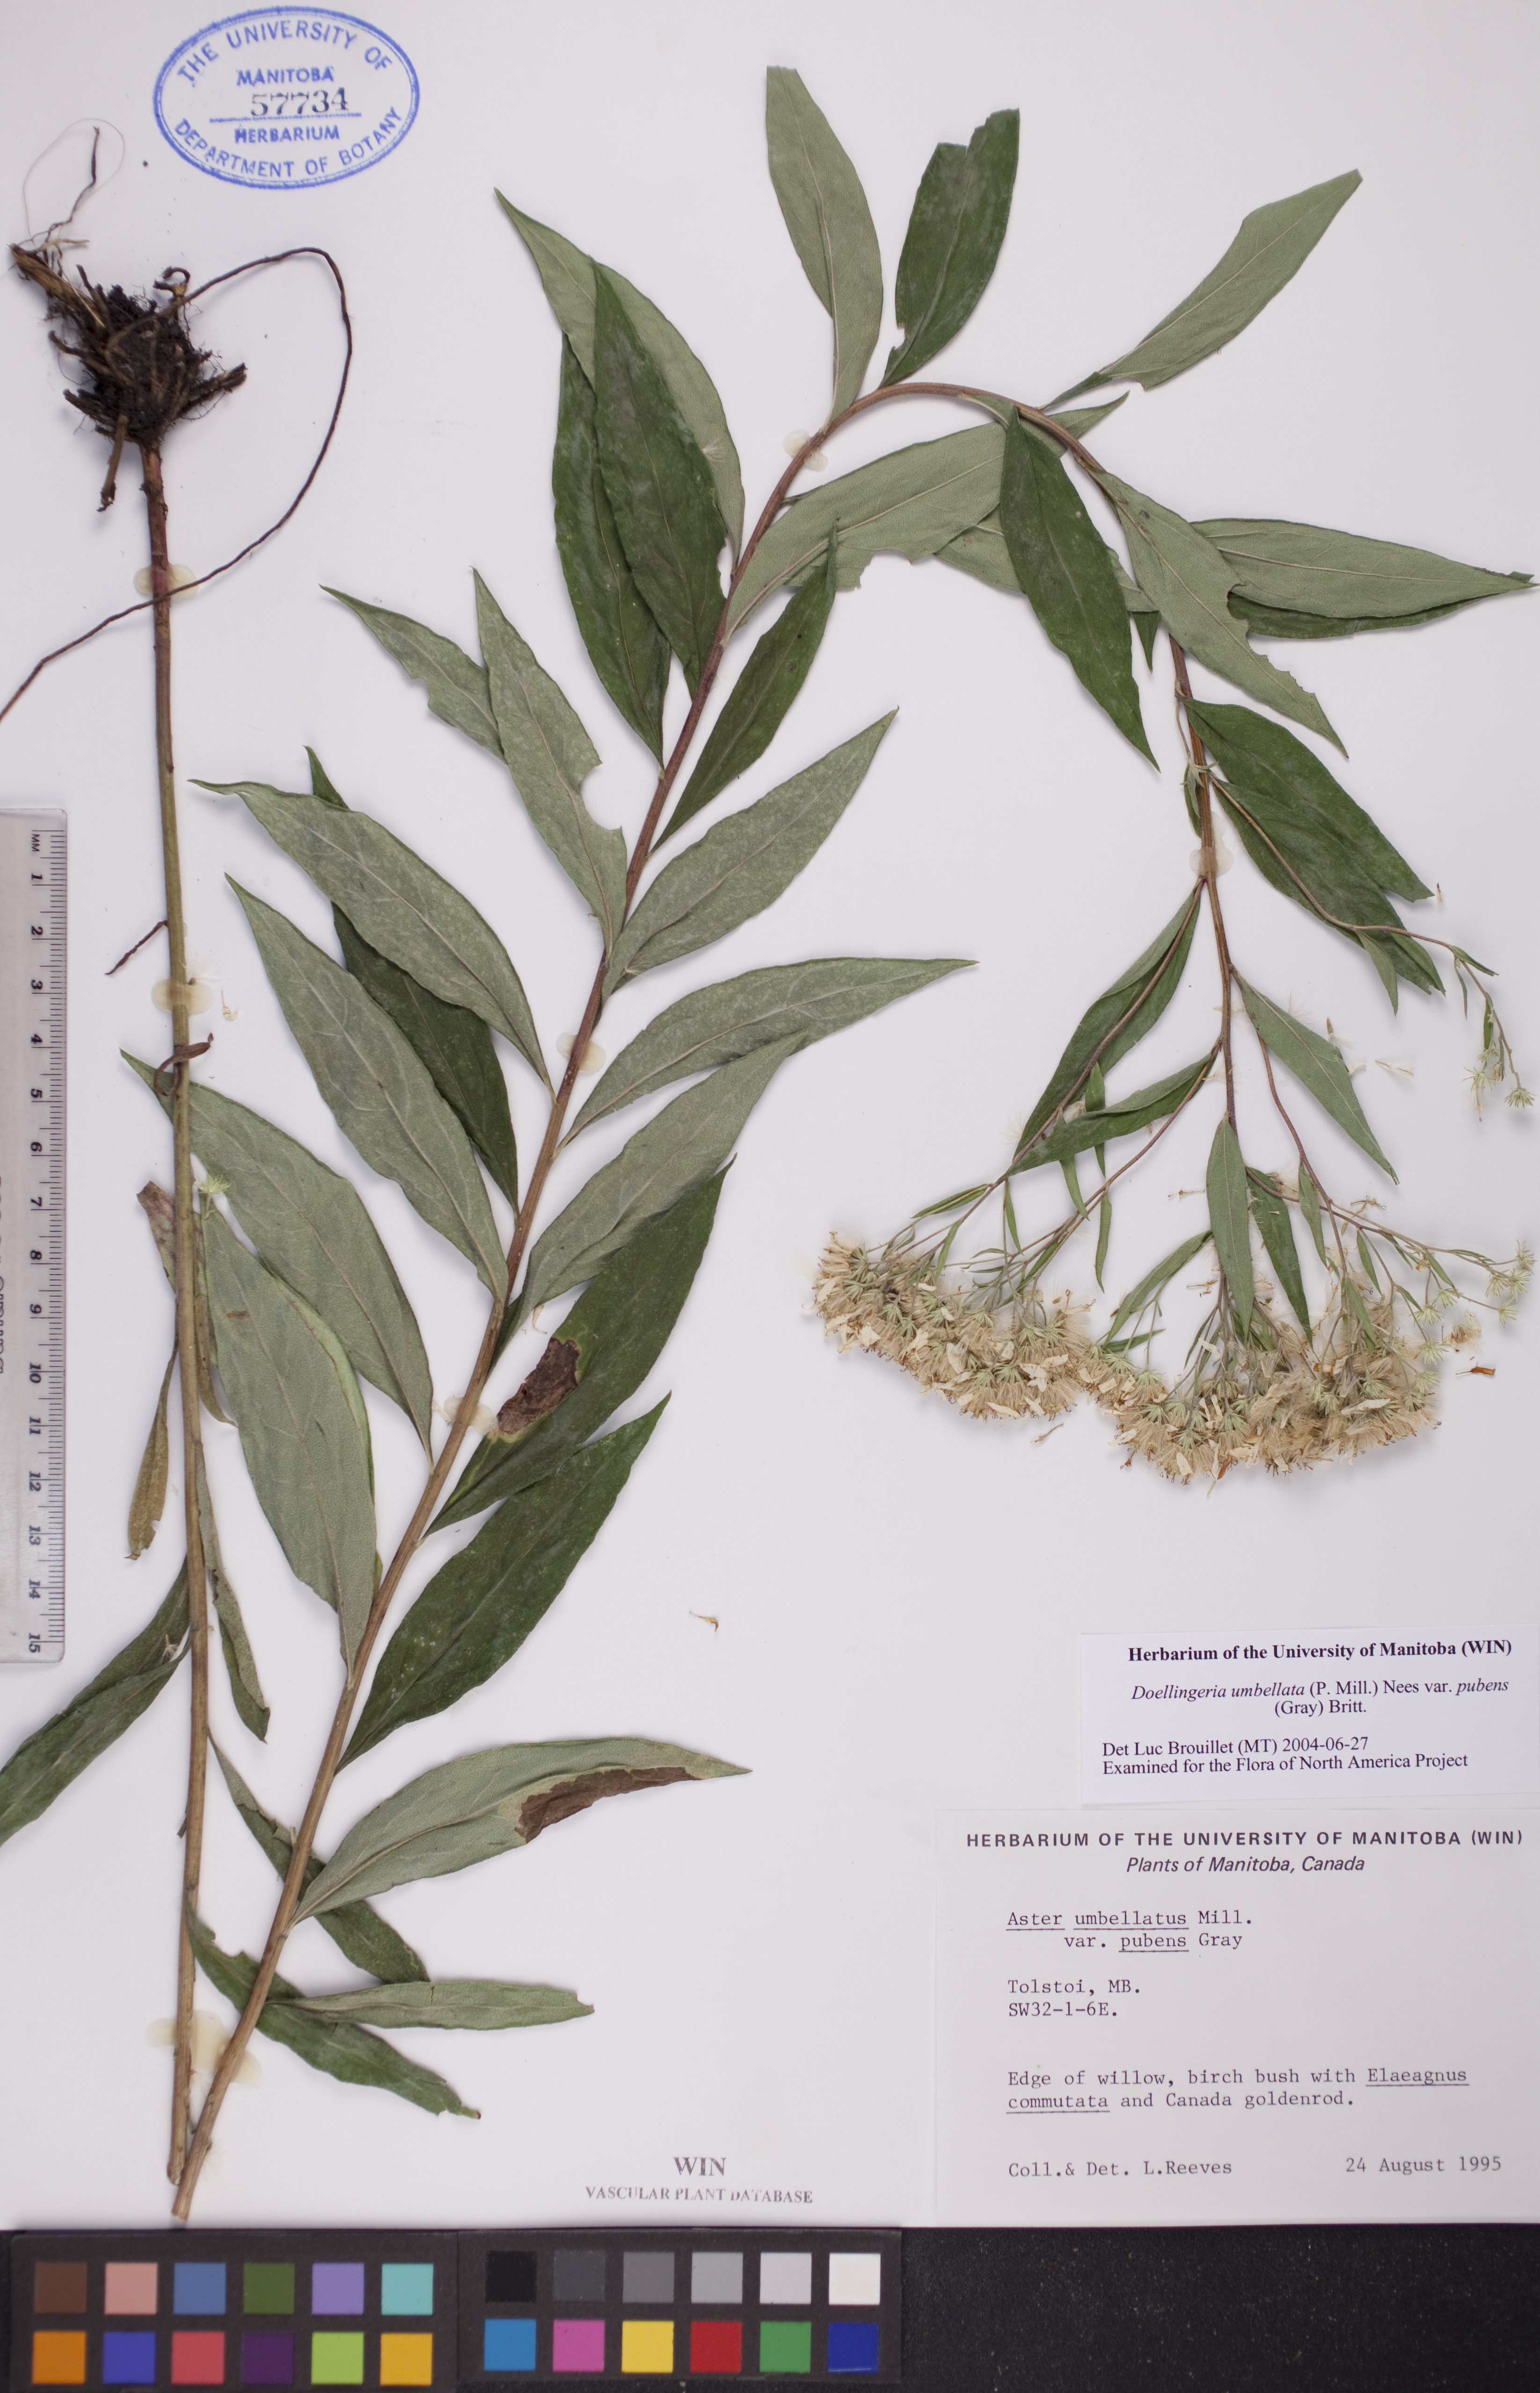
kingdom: Plantae
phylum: Tracheophyta
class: Magnoliopsida
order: Asterales
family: Asteraceae
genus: Doellingeria
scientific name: Doellingeria umbellata
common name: Flat-top white aster
